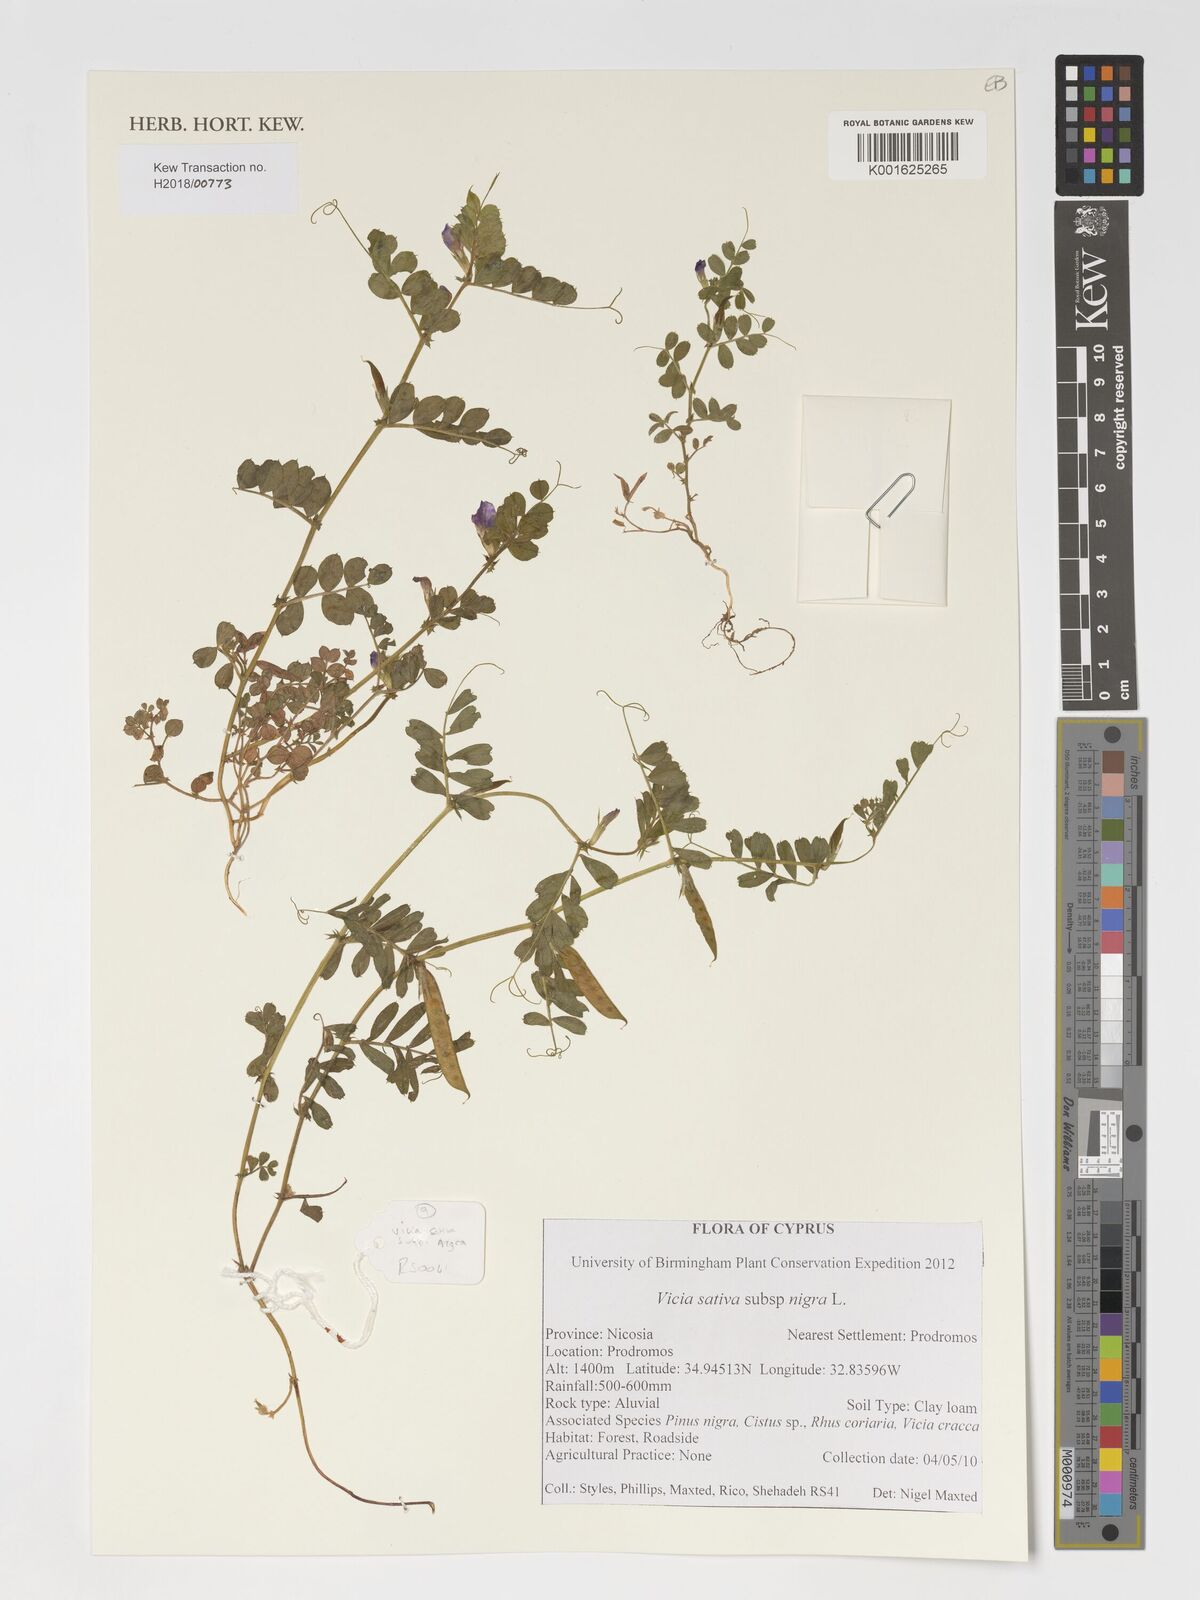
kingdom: Plantae
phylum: Tracheophyta
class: Magnoliopsida
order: Fabales
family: Fabaceae
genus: Vicia
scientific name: Vicia sativa
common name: Garden vetch
